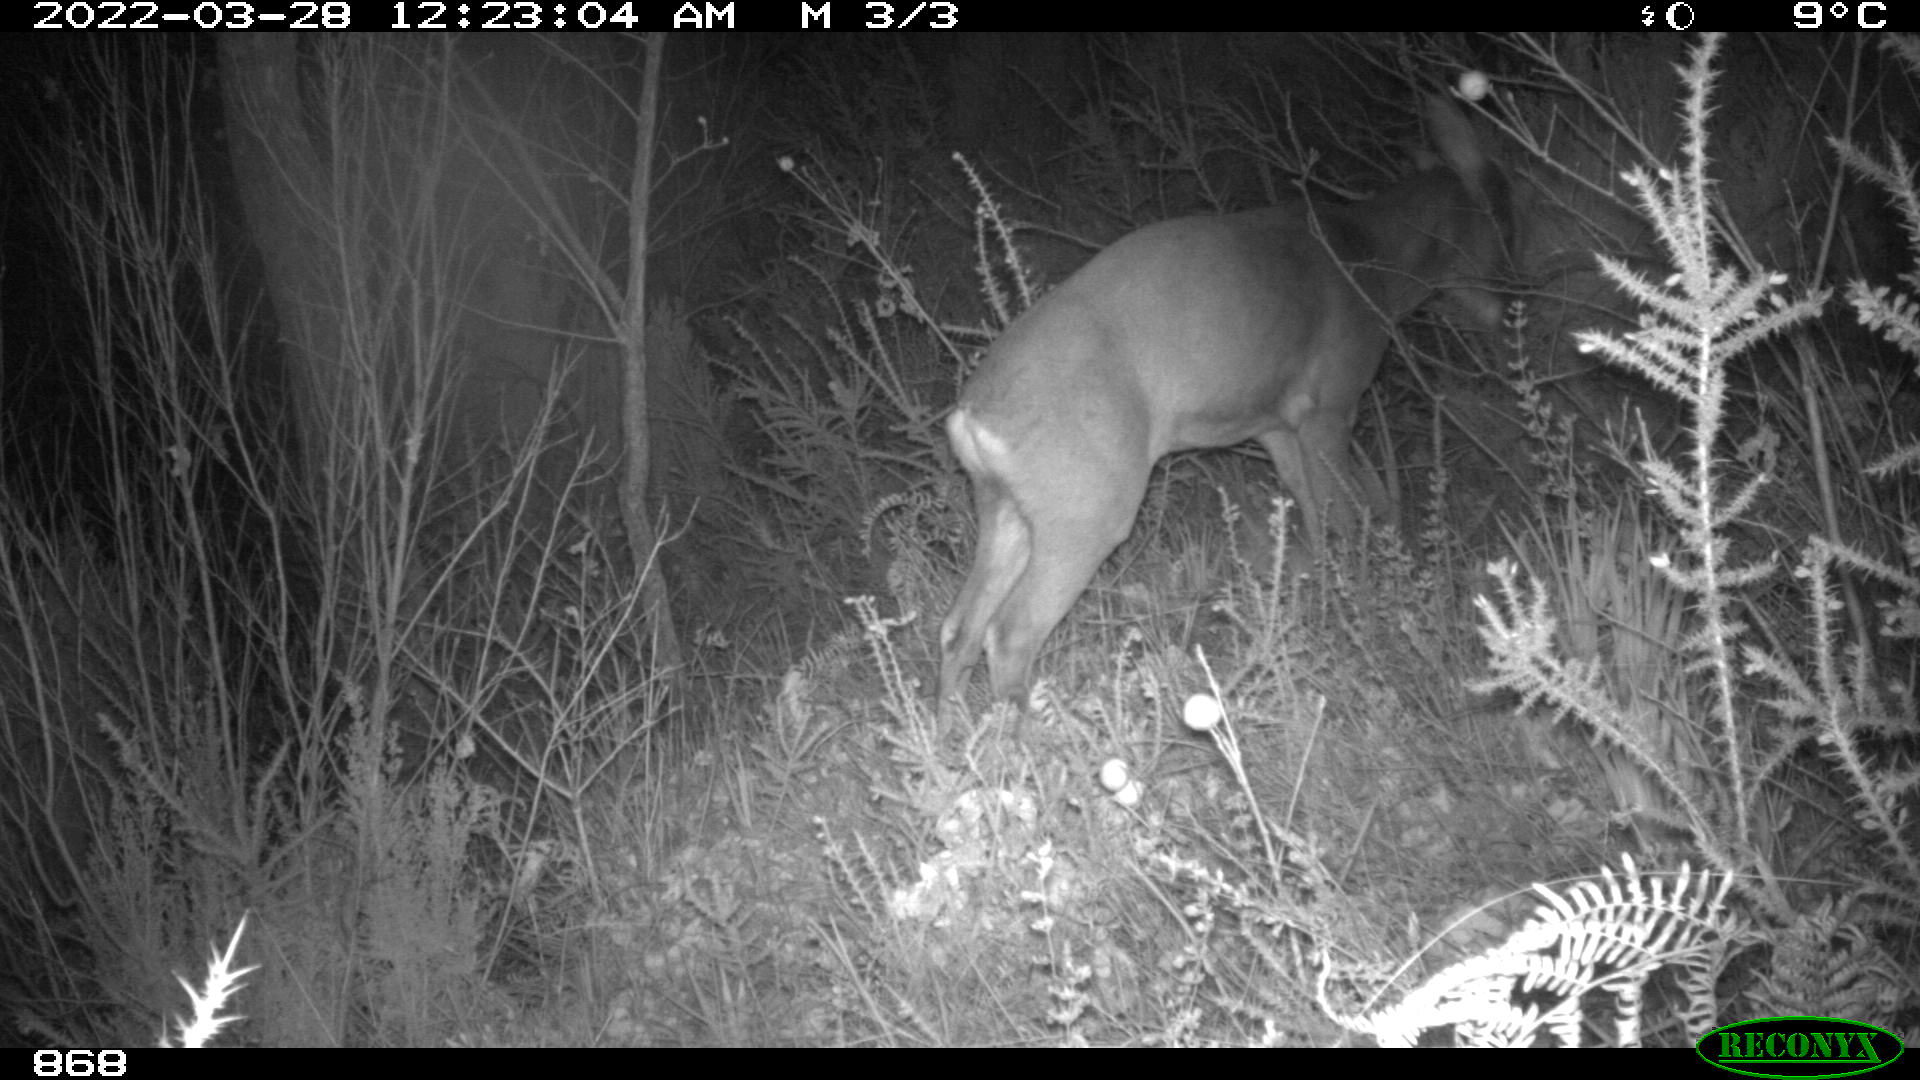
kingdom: Animalia
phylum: Chordata
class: Mammalia
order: Artiodactyla
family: Cervidae
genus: Capreolus
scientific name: Capreolus capreolus
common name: Western roe deer
